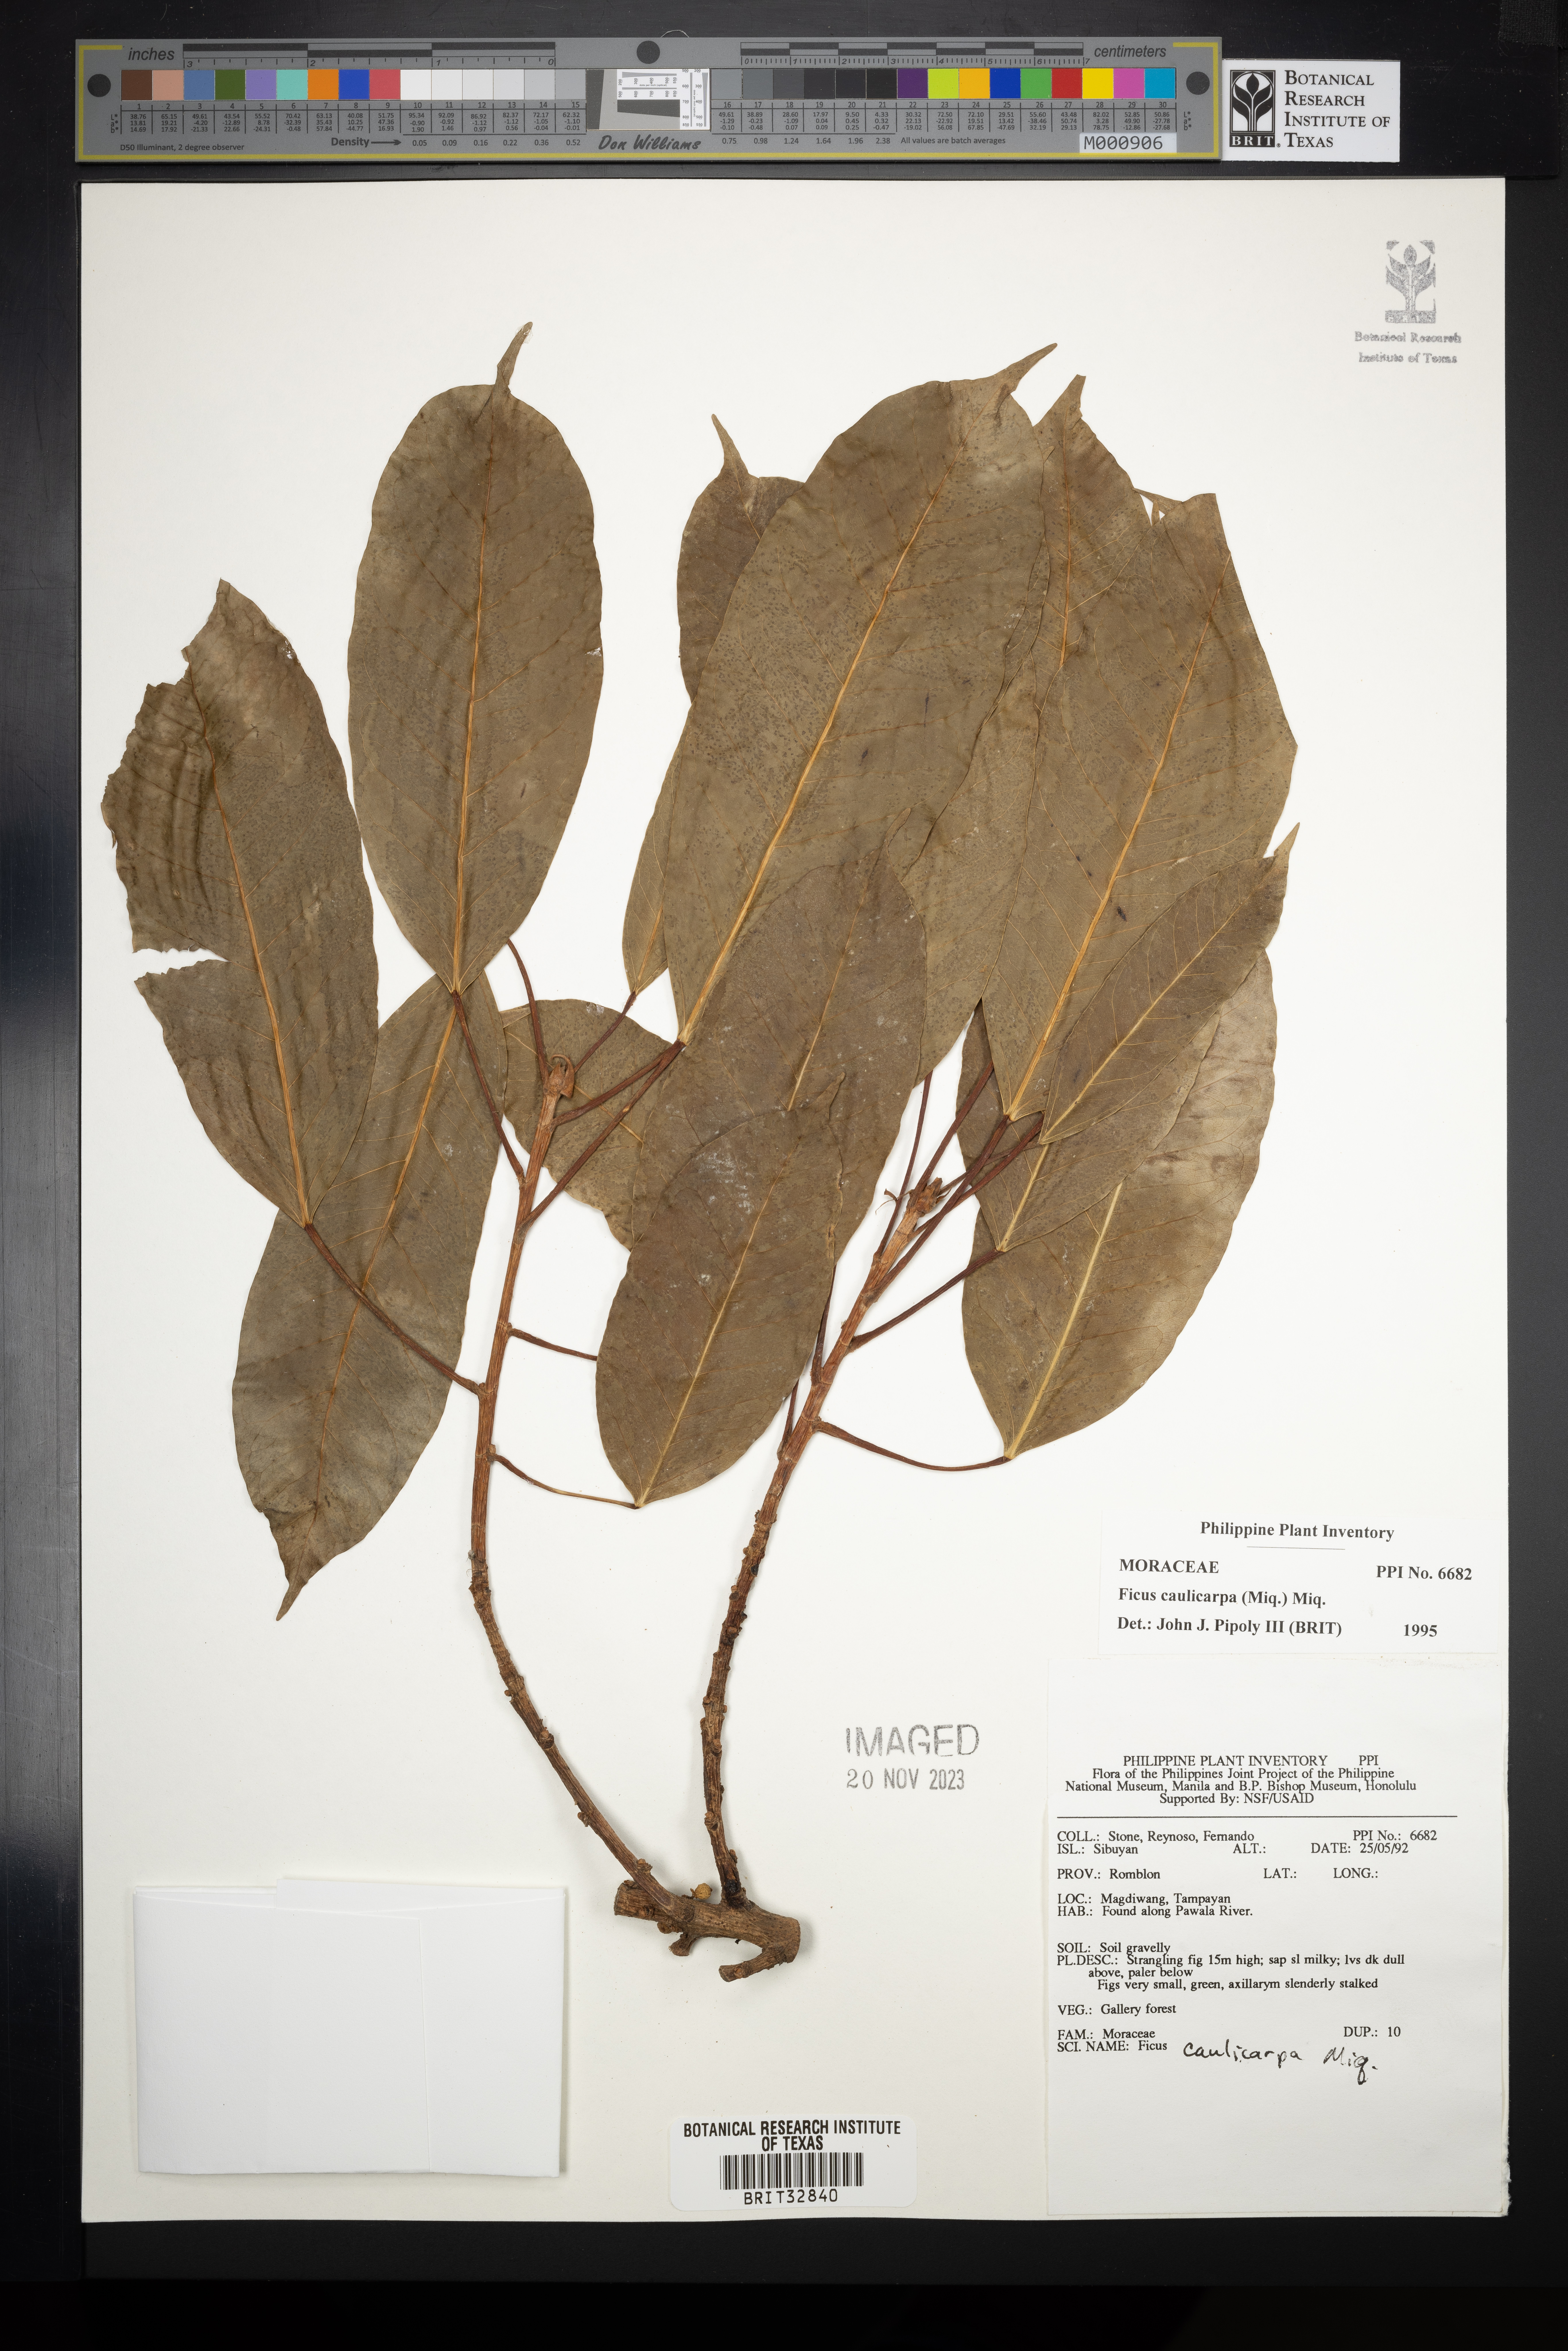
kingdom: Plantae
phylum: Tracheophyta
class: Magnoliopsida
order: Rosales
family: Moraceae
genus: Ficus
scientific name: Ficus caulocarpa
